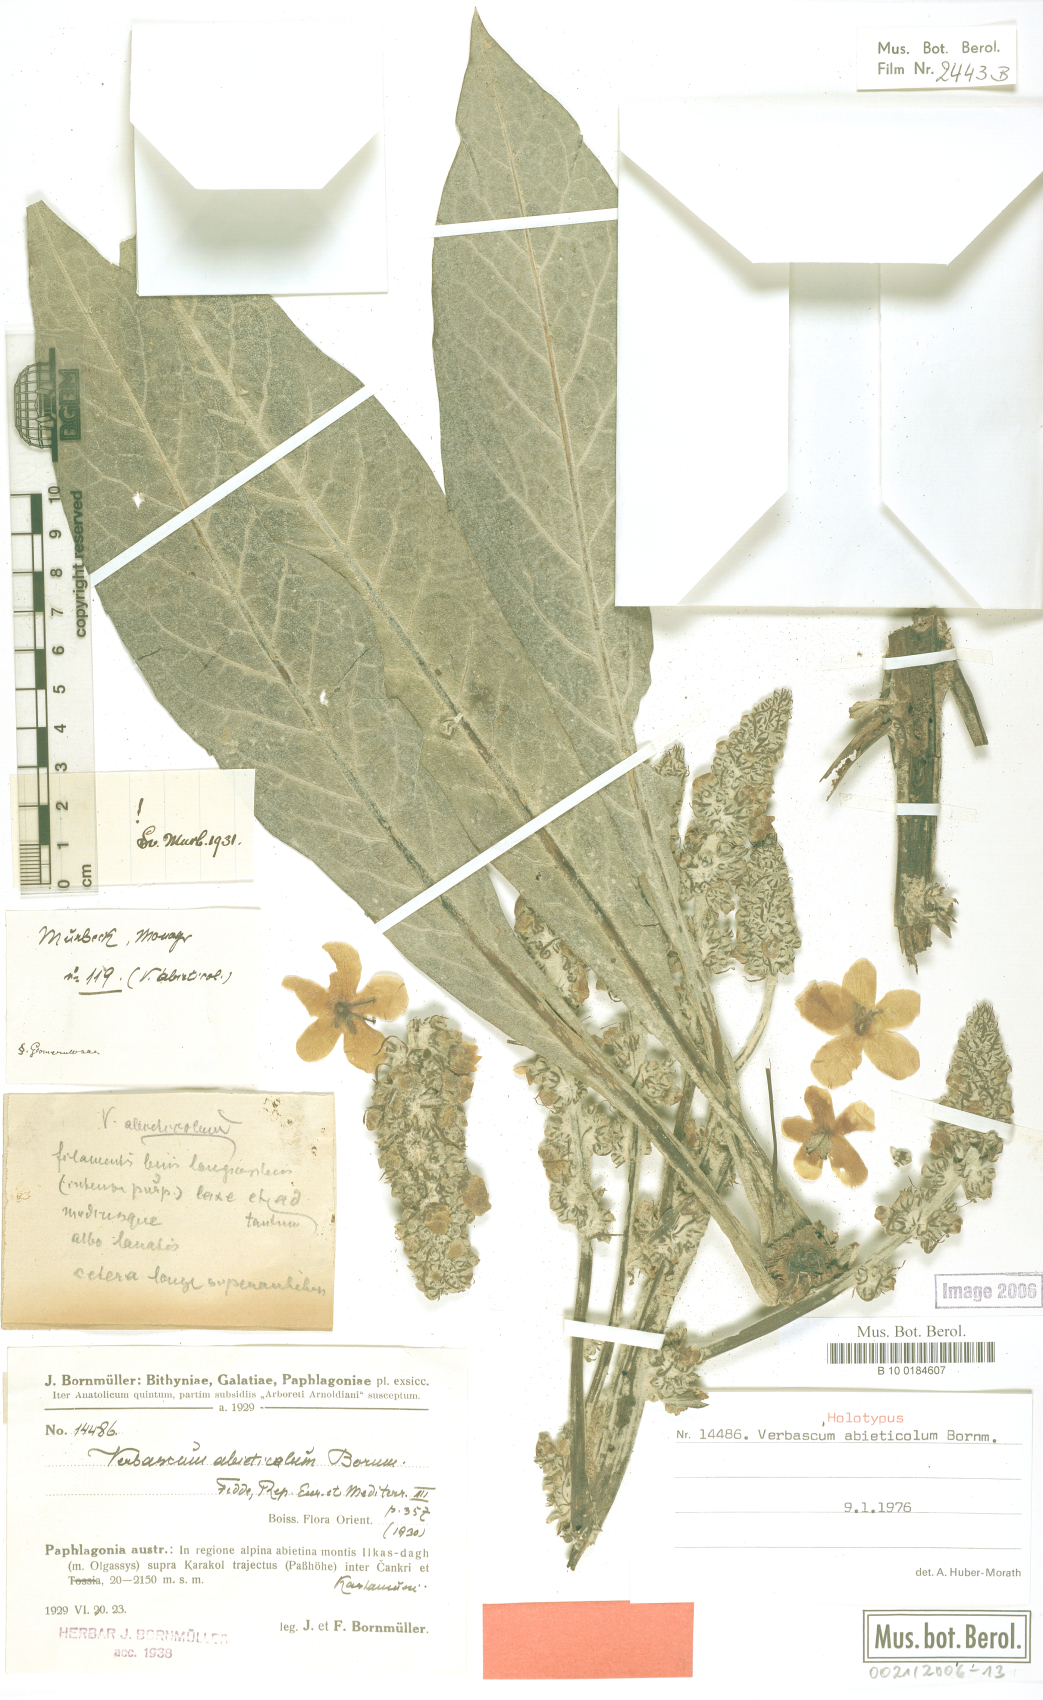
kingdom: Plantae
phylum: Tracheophyta
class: Magnoliopsida
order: Lamiales
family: Scrophulariaceae
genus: Verbascum
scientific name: Verbascum abieticola
